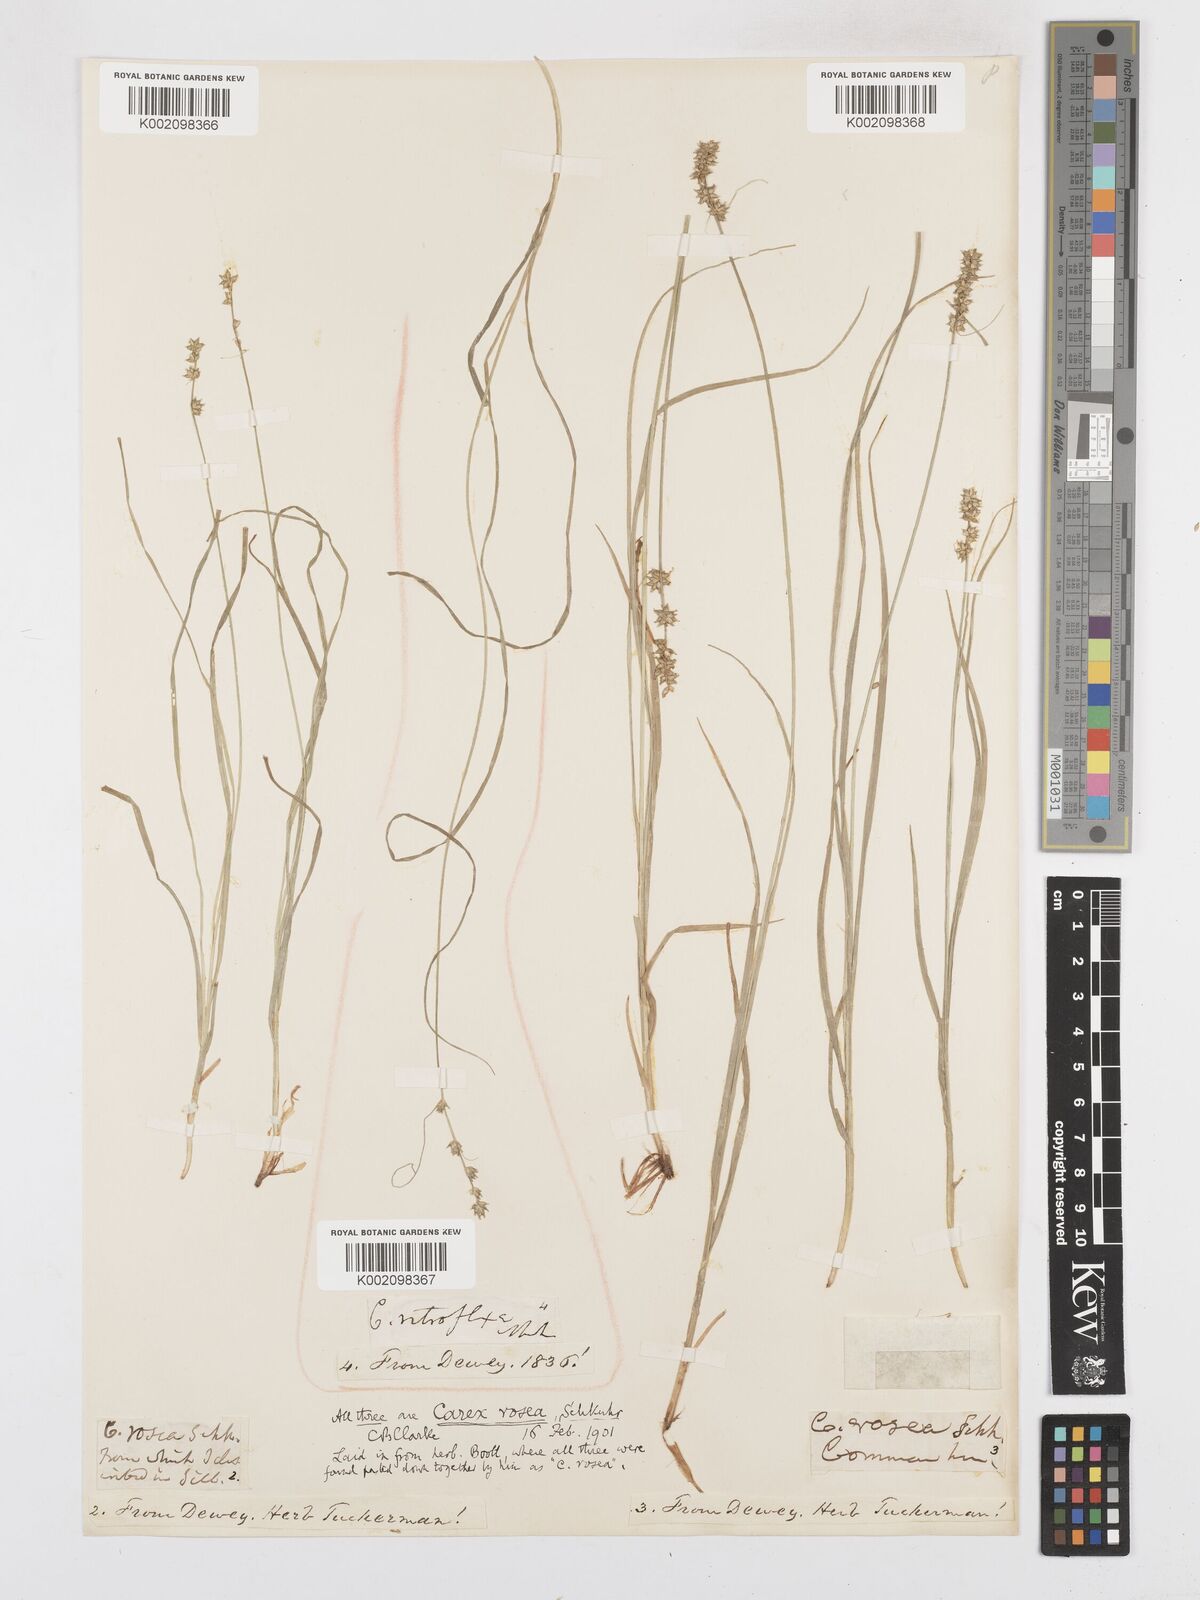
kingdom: Plantae
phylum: Tracheophyta
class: Liliopsida
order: Poales
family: Cyperaceae
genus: Carex
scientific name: Carex rosea
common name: Curly-styled wood sedge
